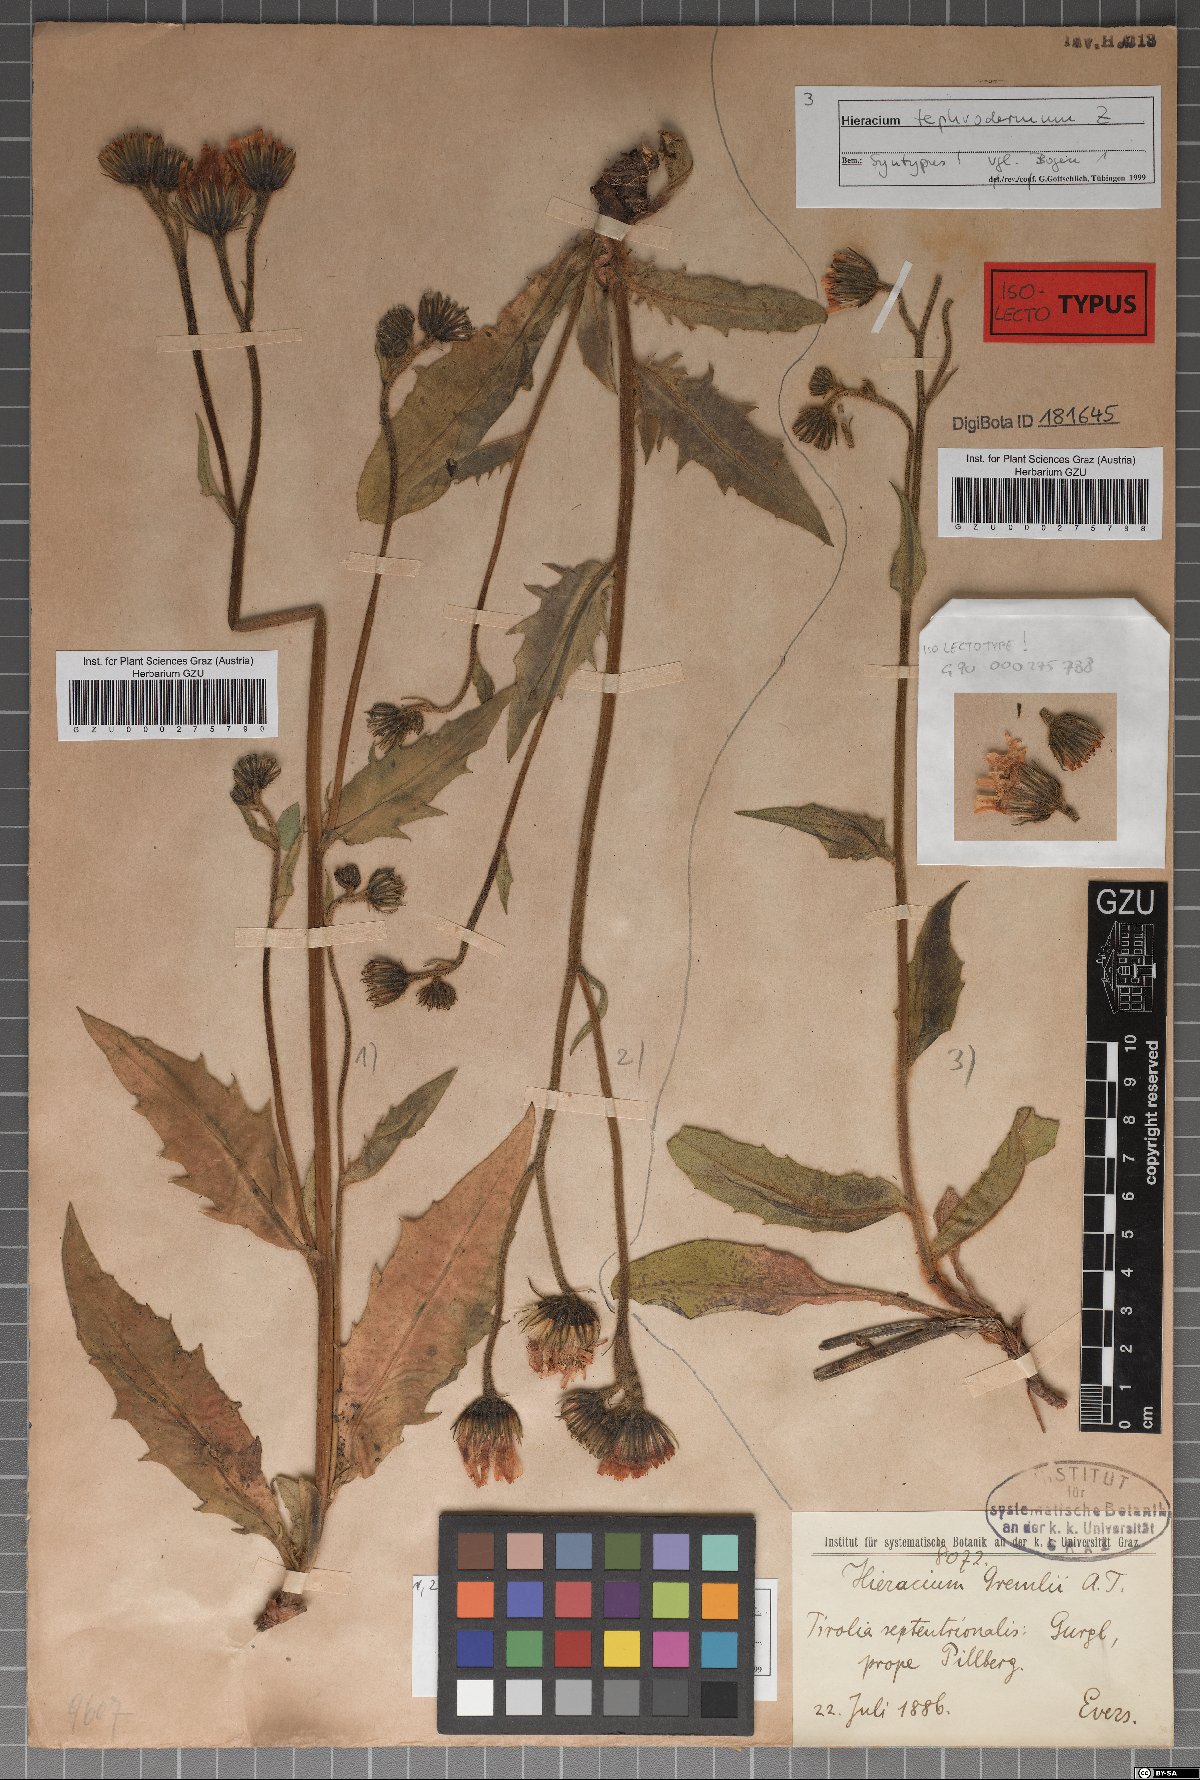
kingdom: Plantae
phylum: Tracheophyta
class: Magnoliopsida
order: Asterales
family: Asteraceae
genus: Hieracium
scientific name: Hieracium tephrodermum
